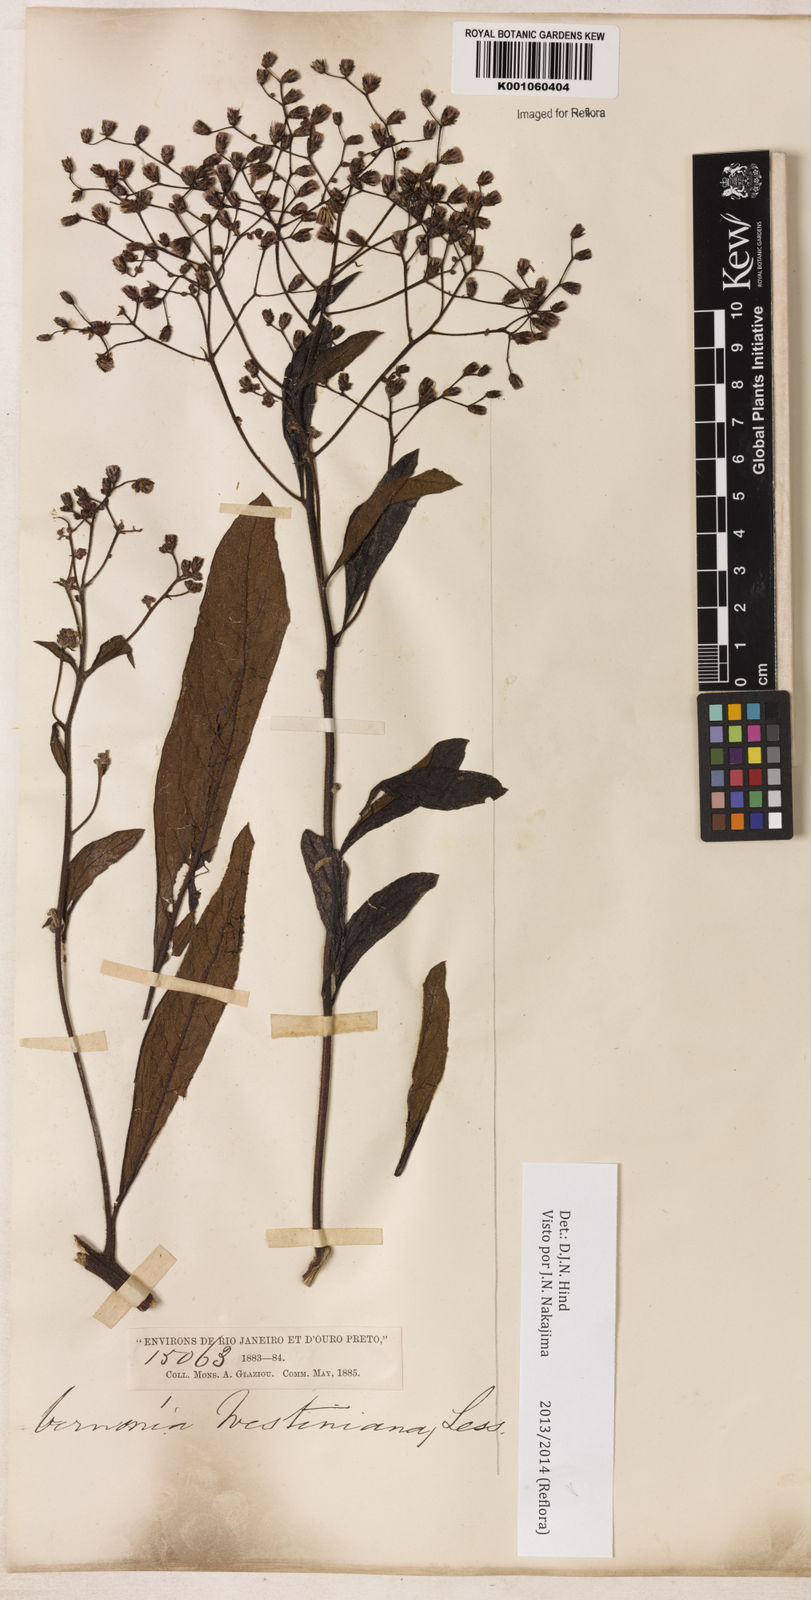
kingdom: Plantae
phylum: Tracheophyta
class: Magnoliopsida
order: Asterales
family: Asteraceae
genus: Vernonanthura
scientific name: Vernonanthura westiniana
